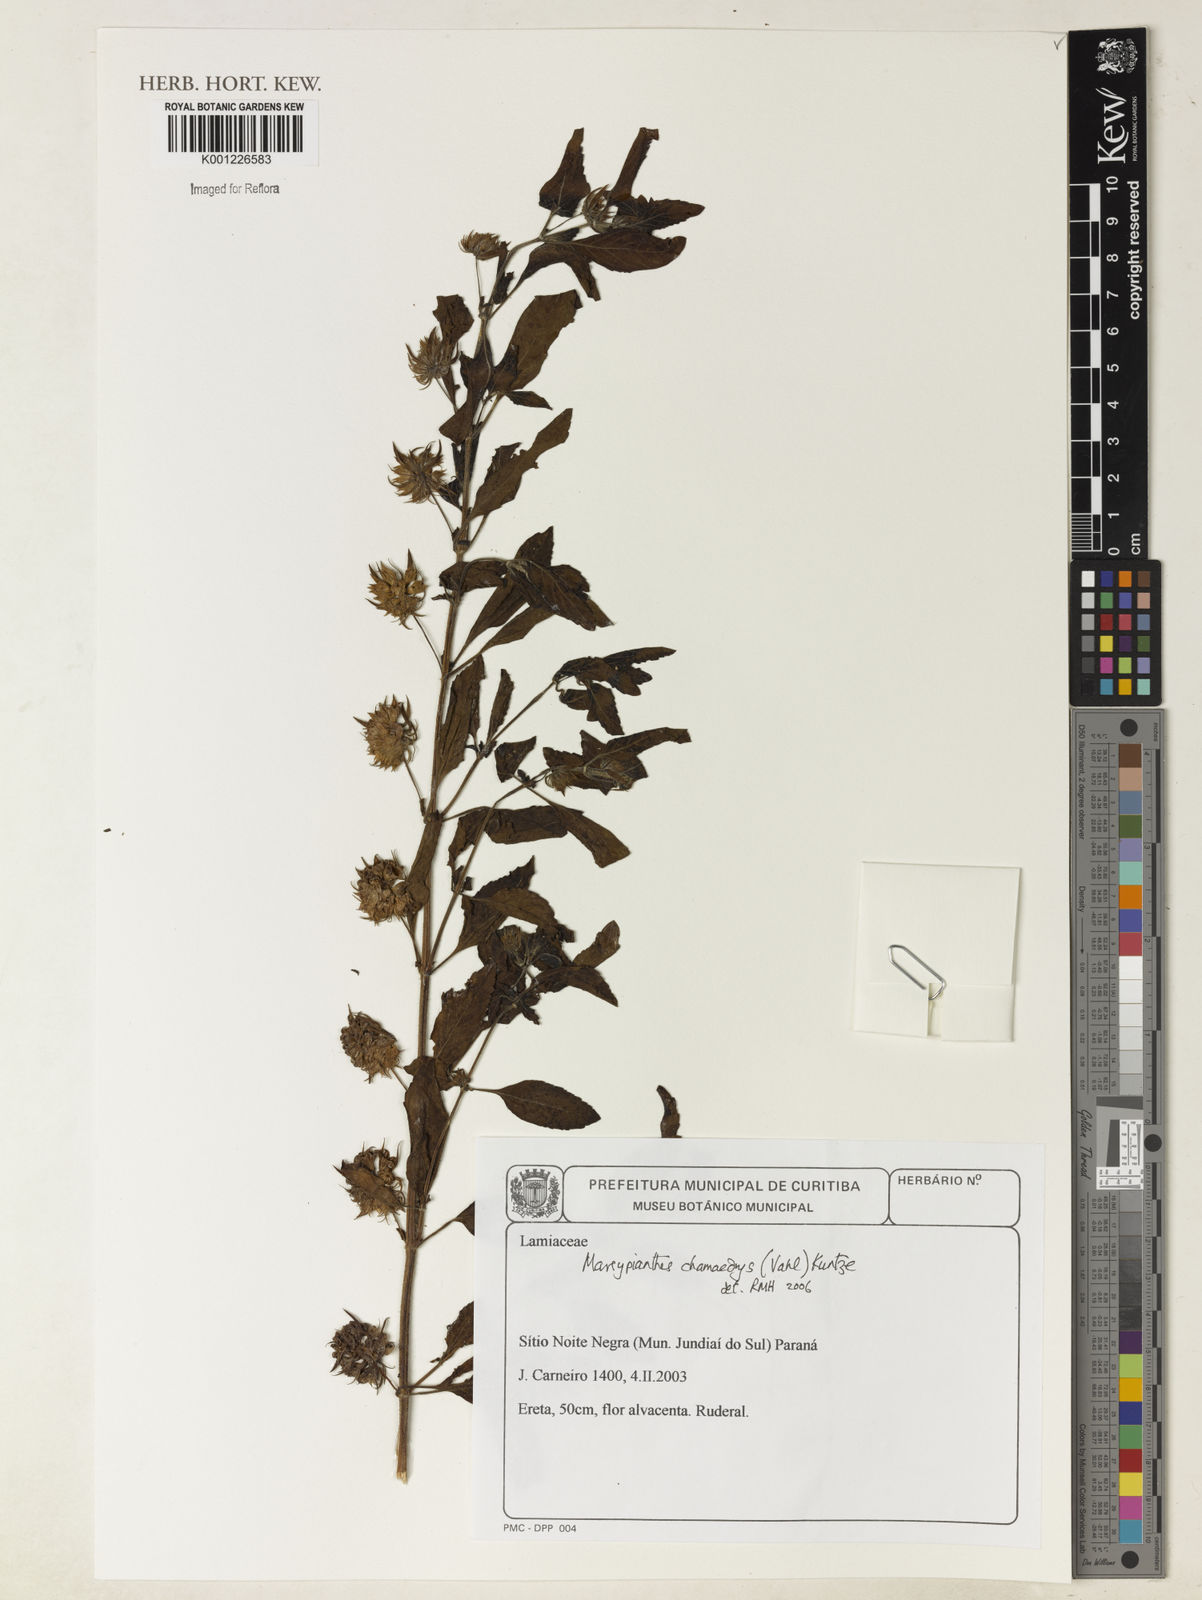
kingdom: Plantae
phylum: Tracheophyta
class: Magnoliopsida
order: Lamiales
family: Lamiaceae
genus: Marsypianthes
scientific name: Marsypianthes chamaedrys
